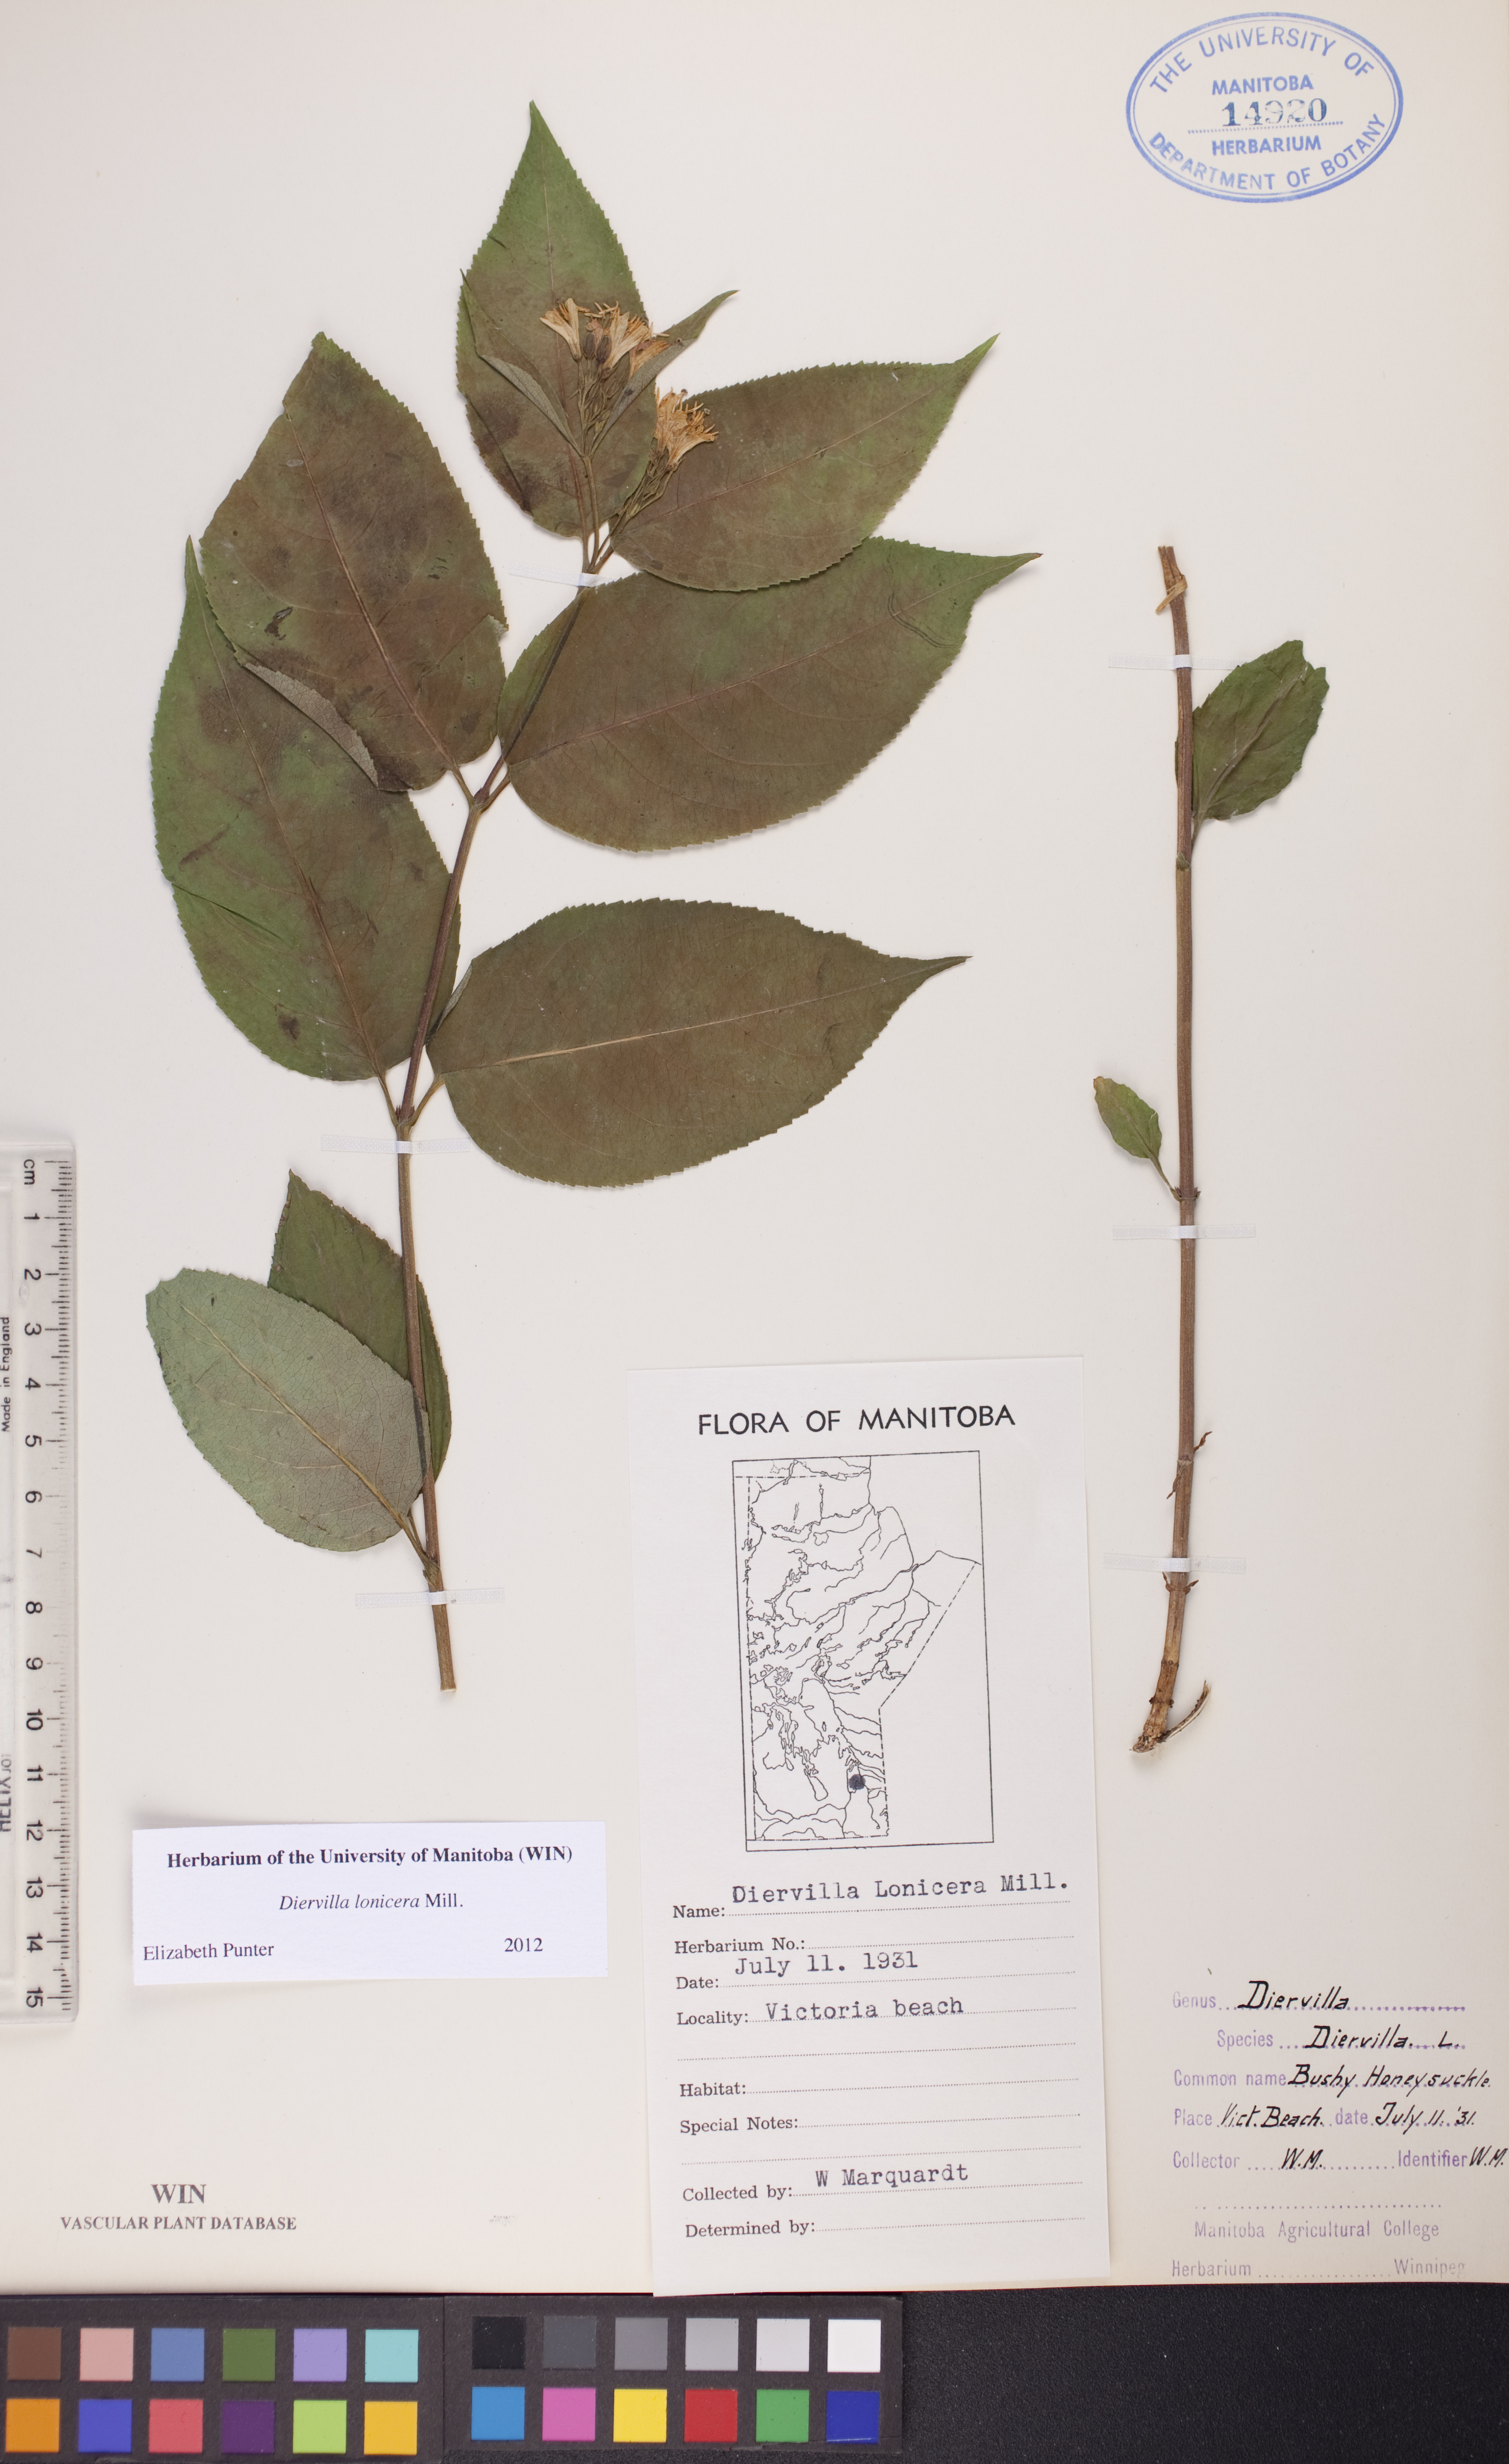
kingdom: Plantae
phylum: Tracheophyta
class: Magnoliopsida
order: Dipsacales
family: Caprifoliaceae
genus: Diervilla
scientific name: Diervilla lonicera
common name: Bush-honeysuckle
